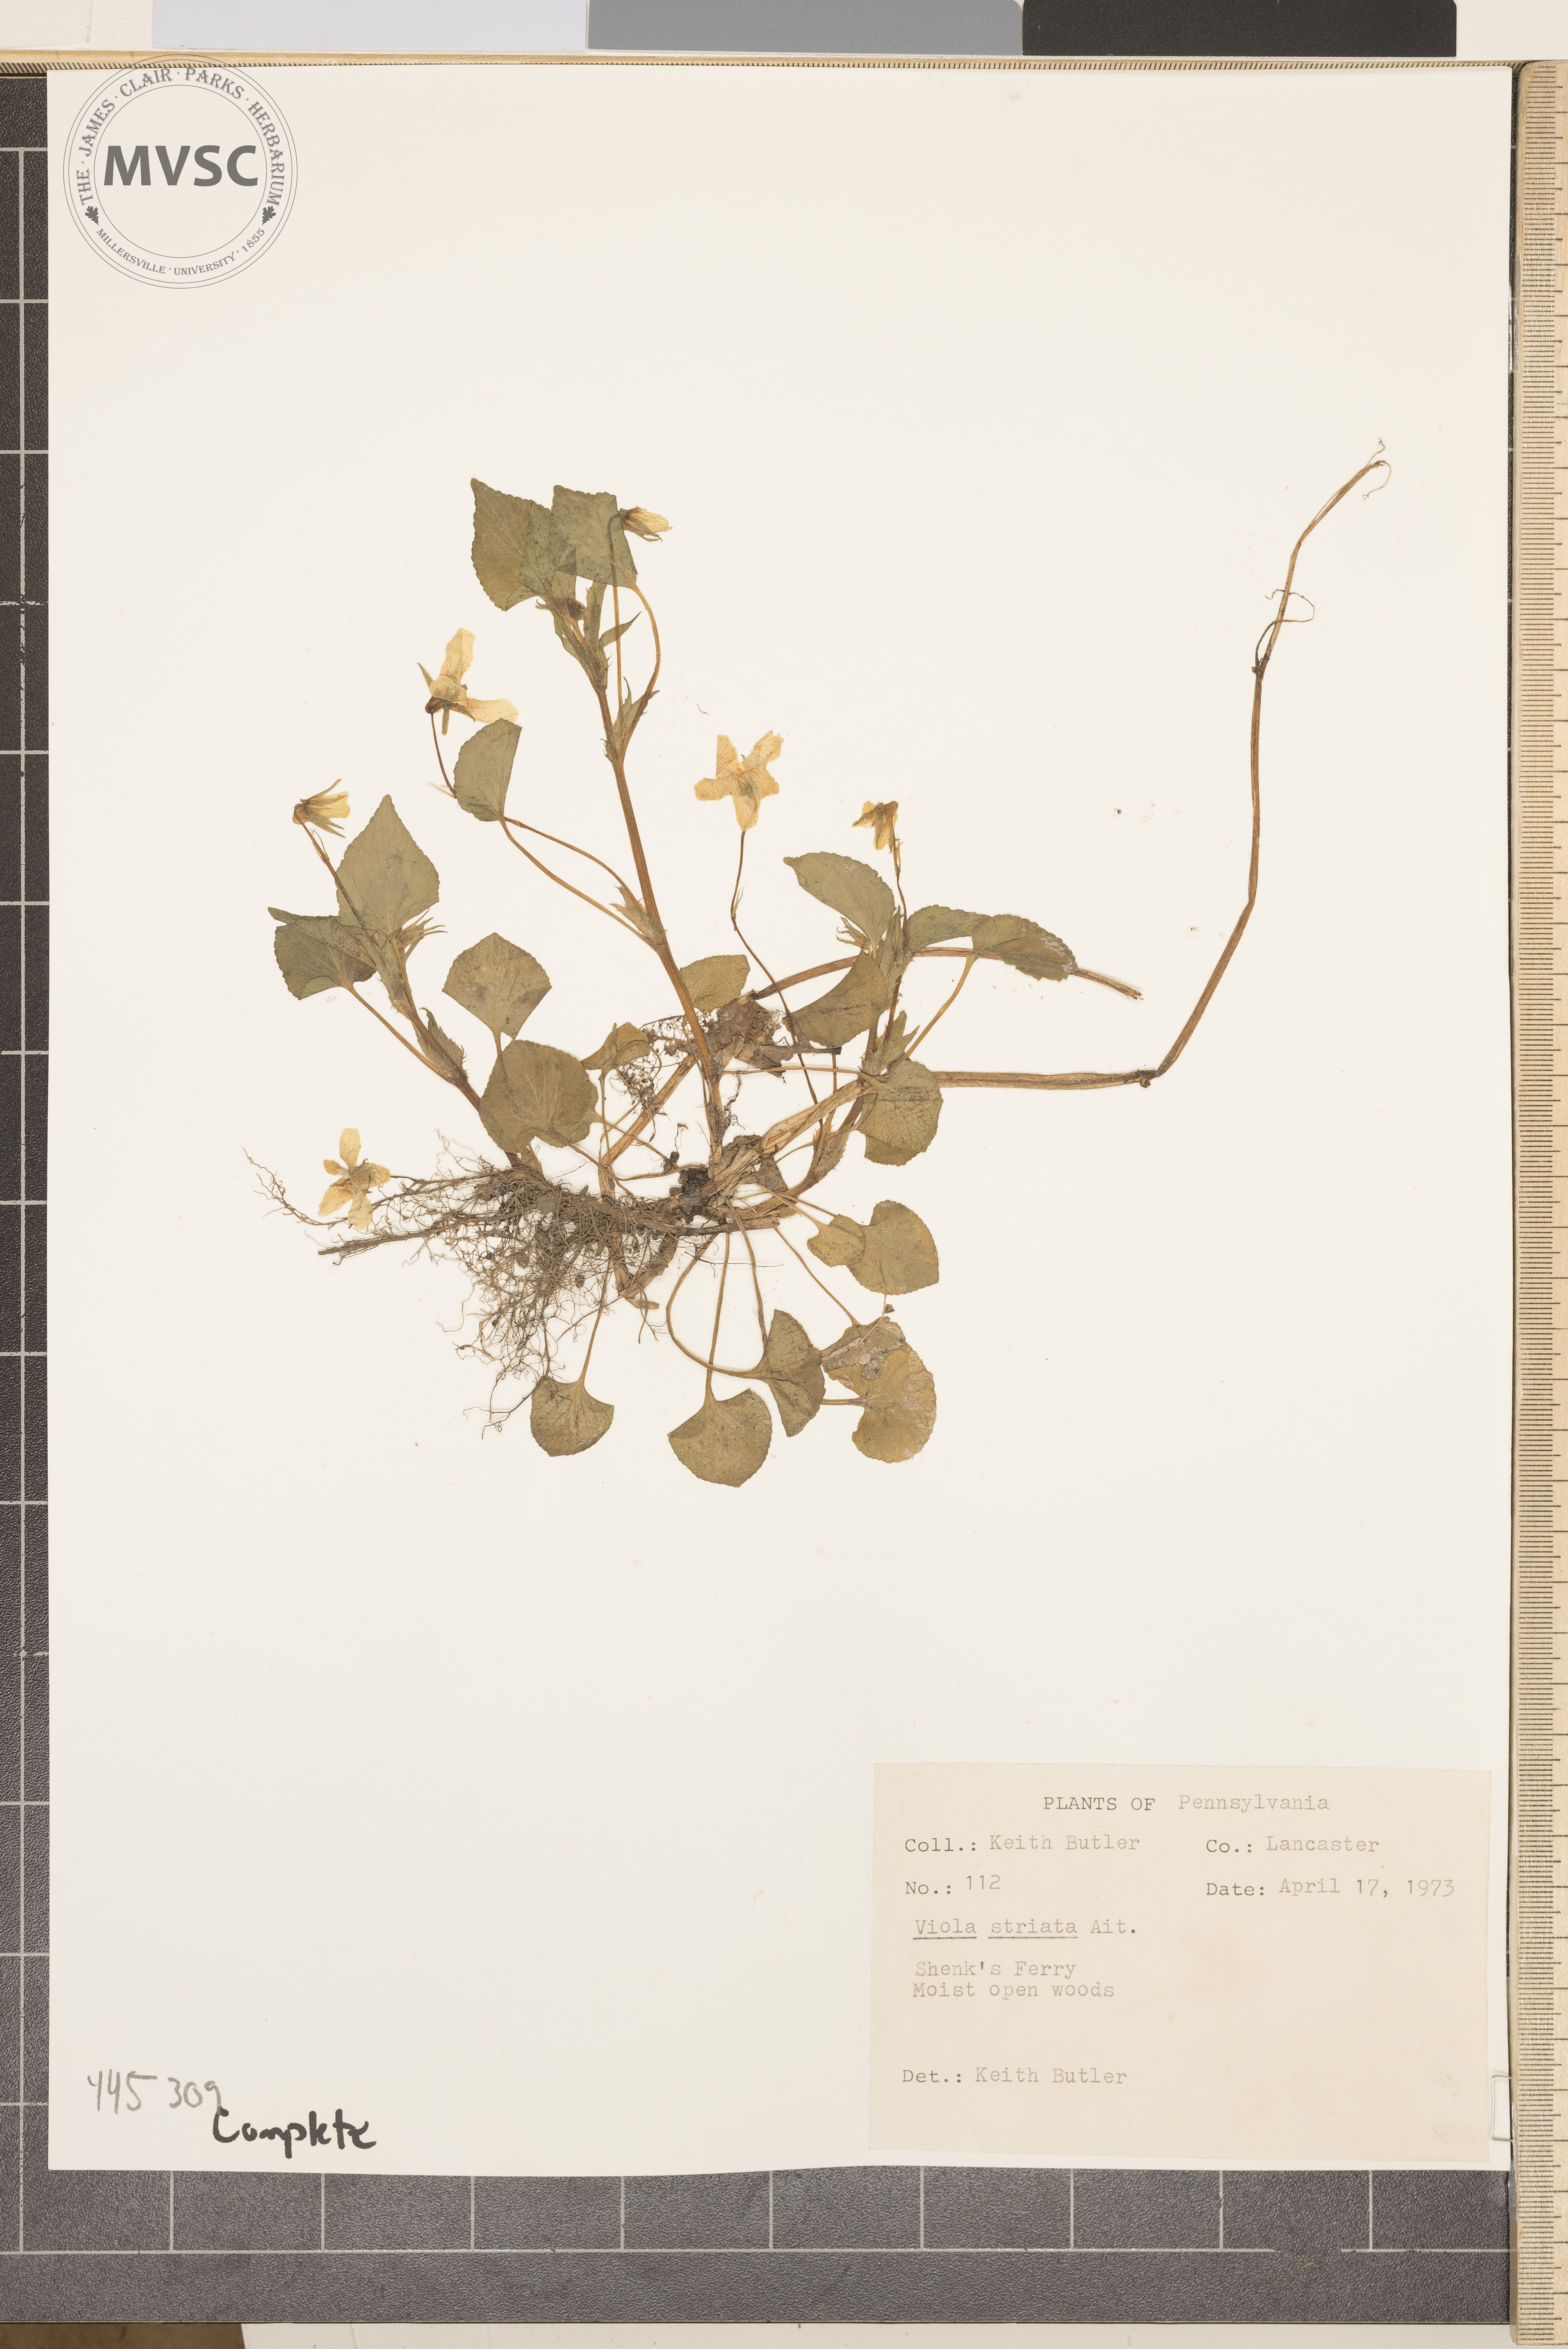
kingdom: Plantae
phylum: Tracheophyta
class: Magnoliopsida
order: Malpighiales
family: Violaceae
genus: Viola
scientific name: Viola striata
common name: Cream violet
